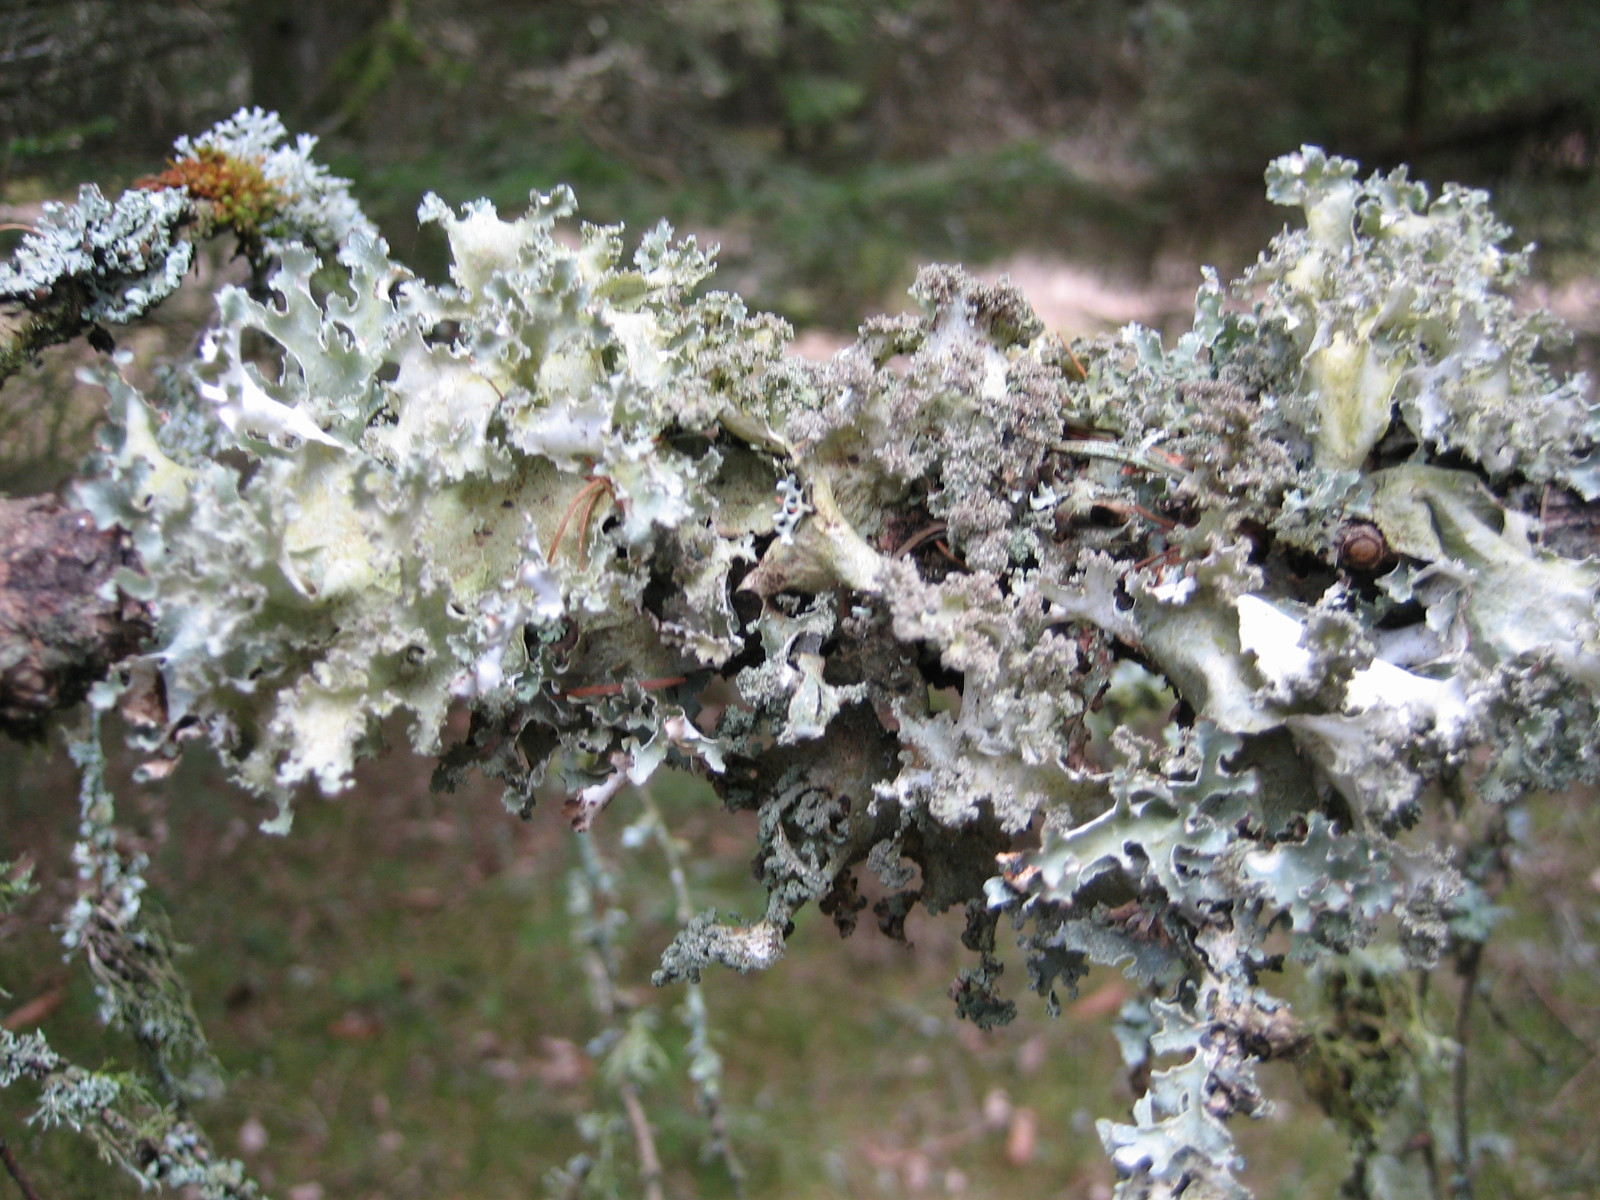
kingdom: Fungi
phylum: Ascomycota
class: Lecanoromycetes
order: Lecanorales
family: Parmeliaceae
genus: Platismatia
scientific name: Platismatia glauca
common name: blågrå papirlav
